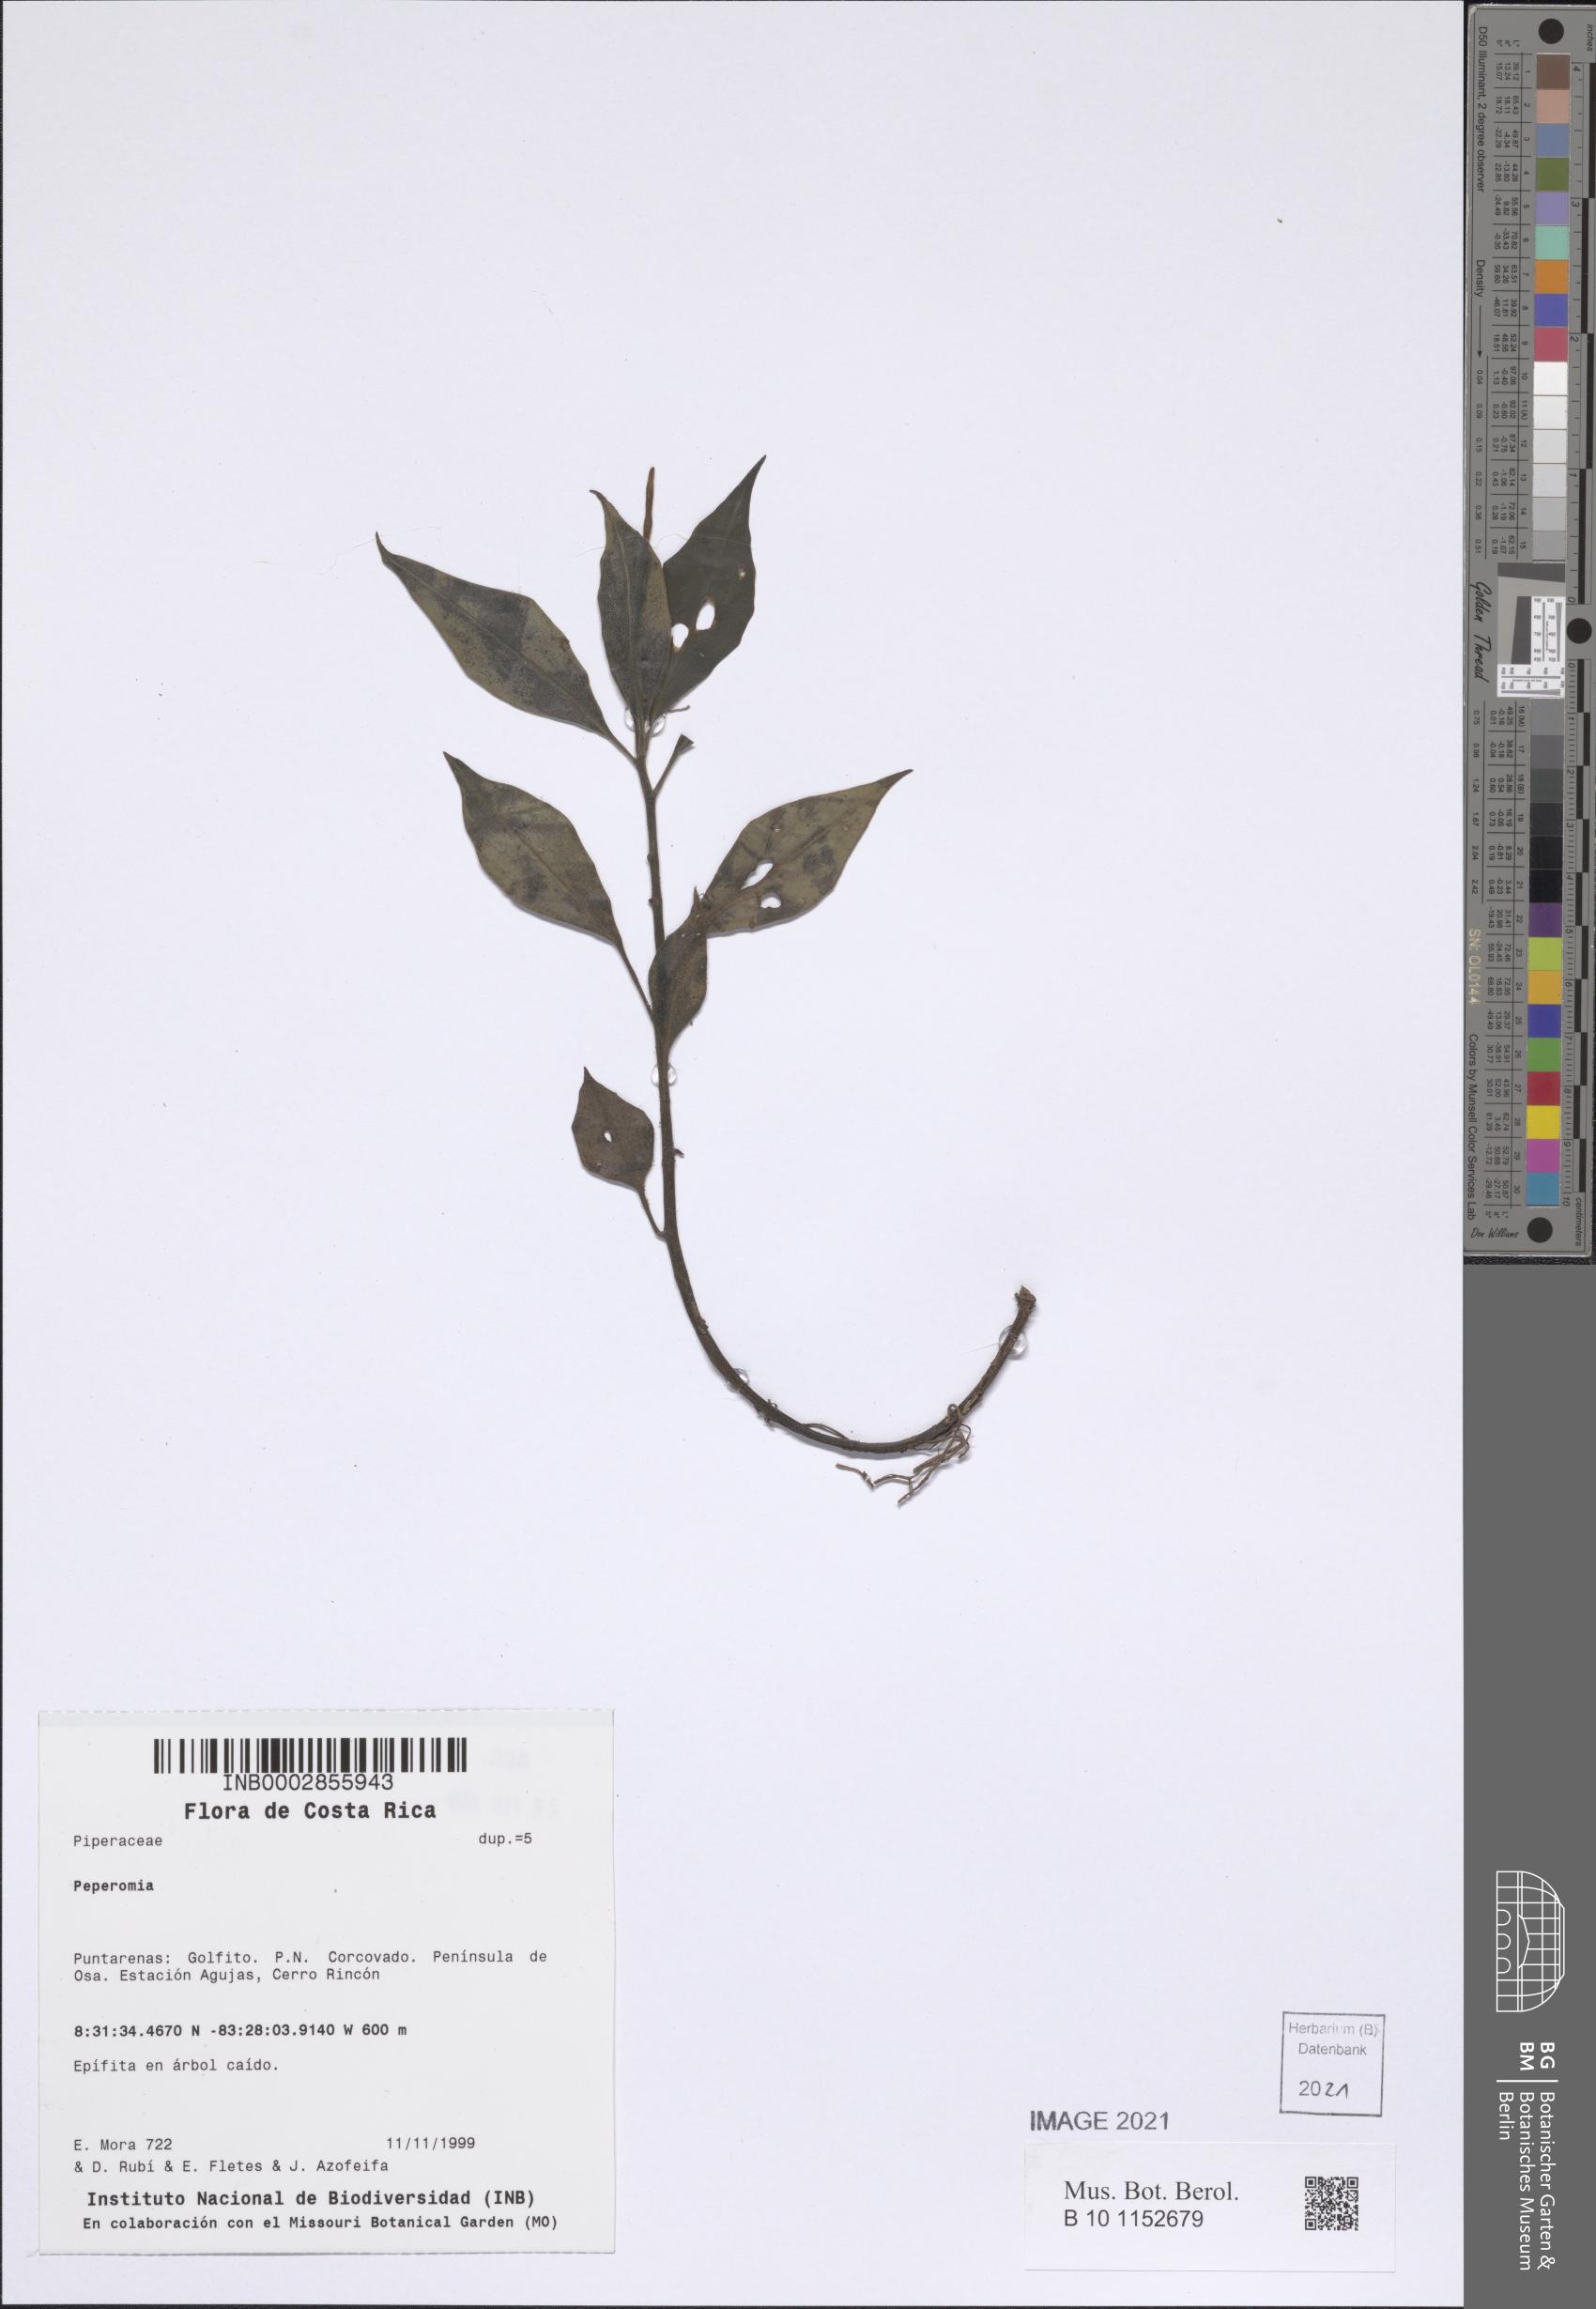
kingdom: Plantae
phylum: Tracheophyta
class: Magnoliopsida
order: Piperales
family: Piperaceae
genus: Peperomia
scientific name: Peperomia
